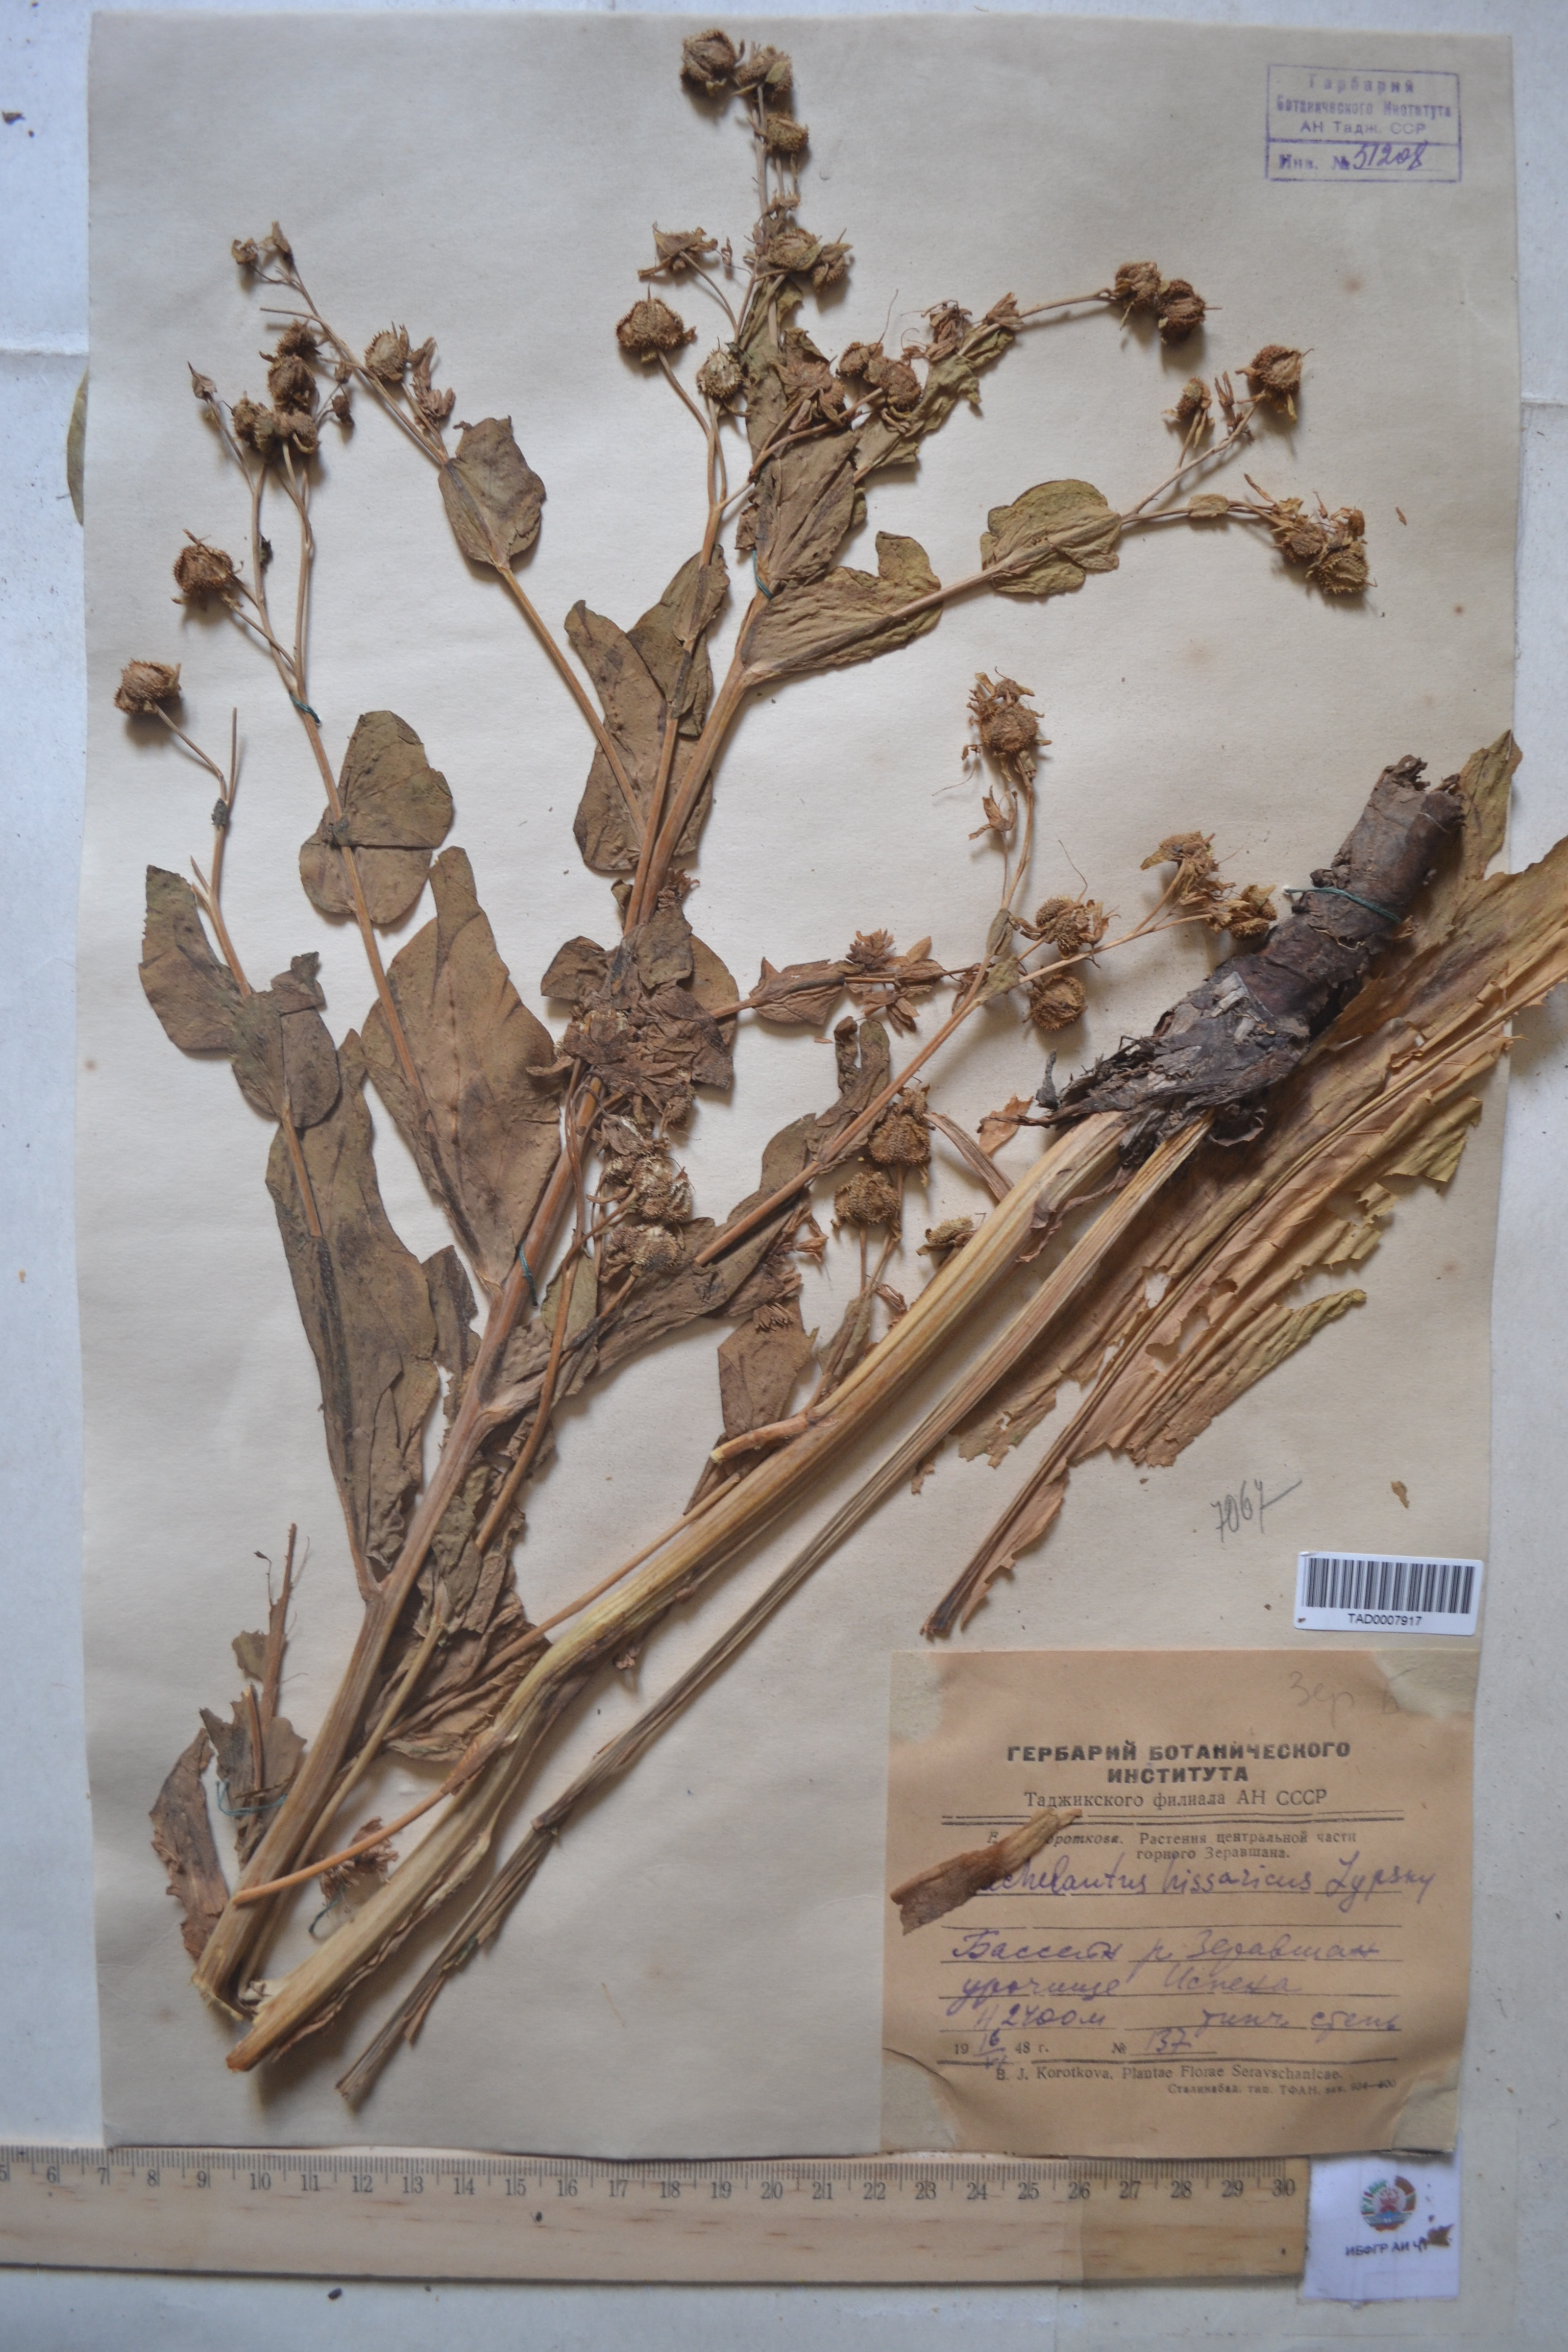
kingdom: Plantae
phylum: Tracheophyta
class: Magnoliopsida
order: Boraginales
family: Boraginaceae
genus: Lindelofia
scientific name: Lindelofia hissarica
